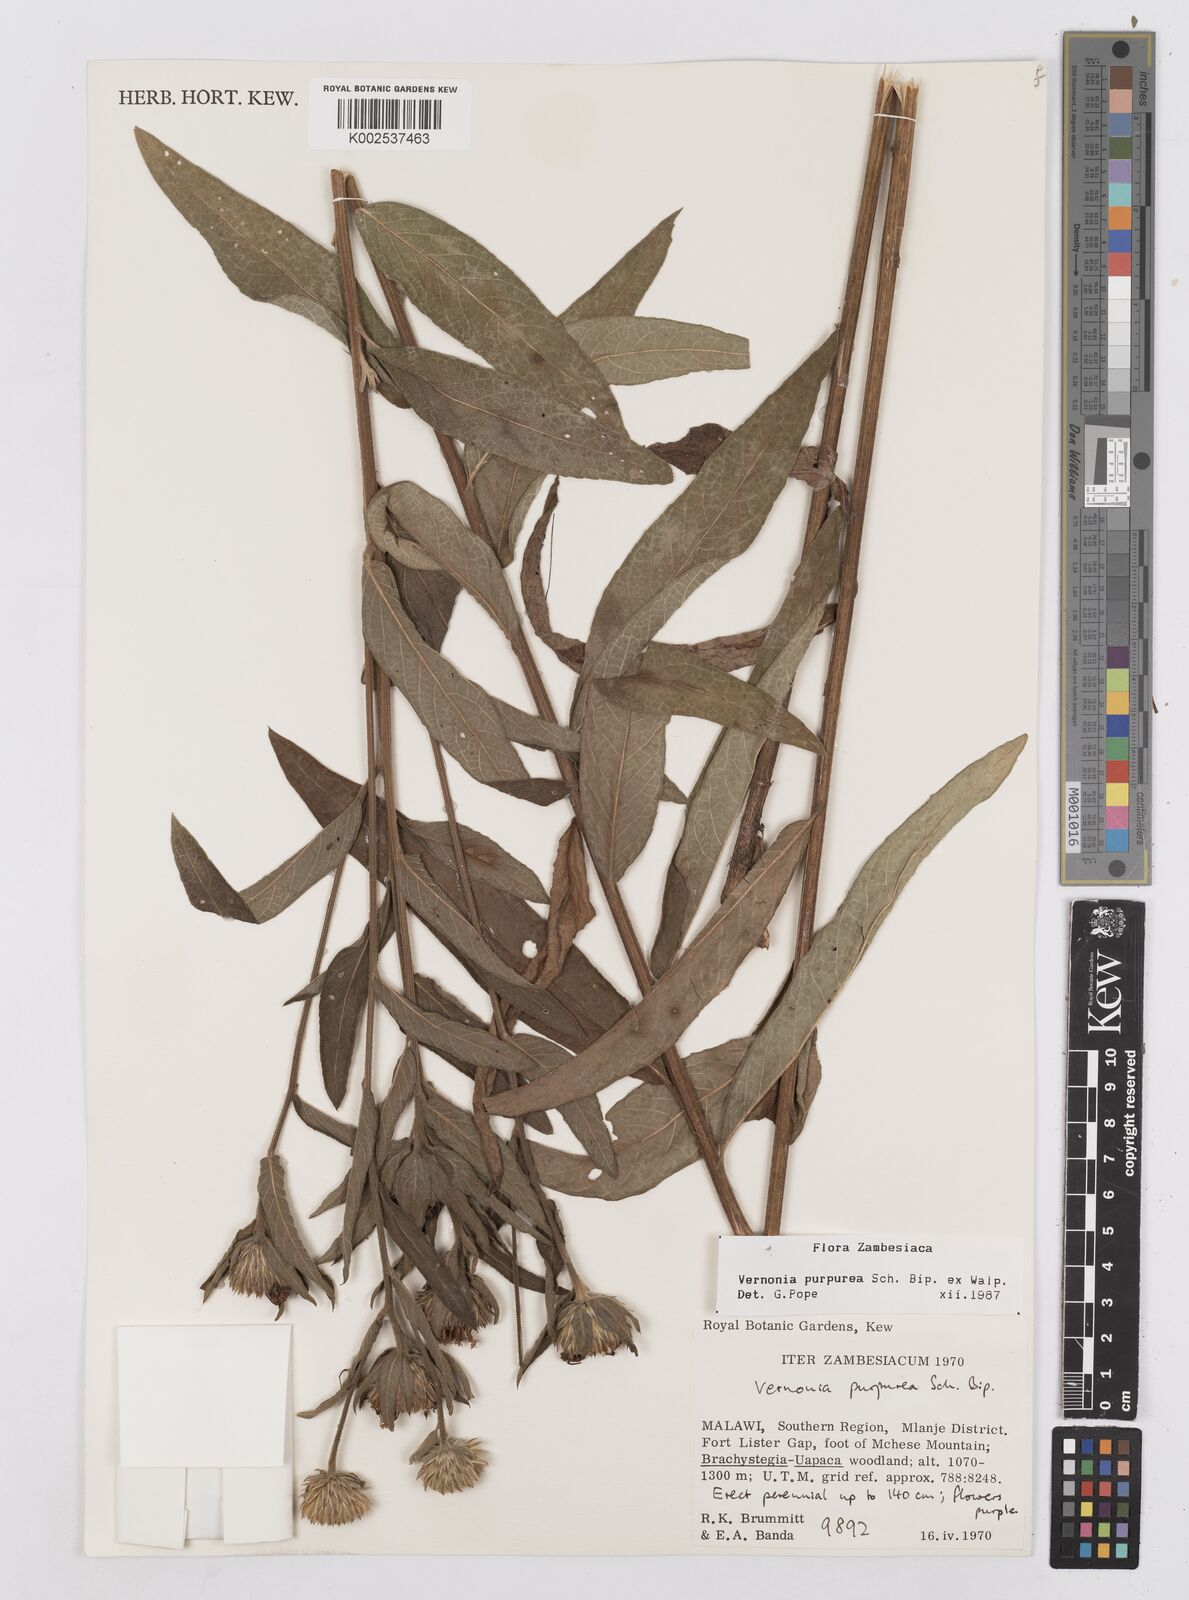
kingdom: Plantae
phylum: Tracheophyta
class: Magnoliopsida
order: Asterales
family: Asteraceae
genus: Nothovernonia
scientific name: Nothovernonia purpurea
